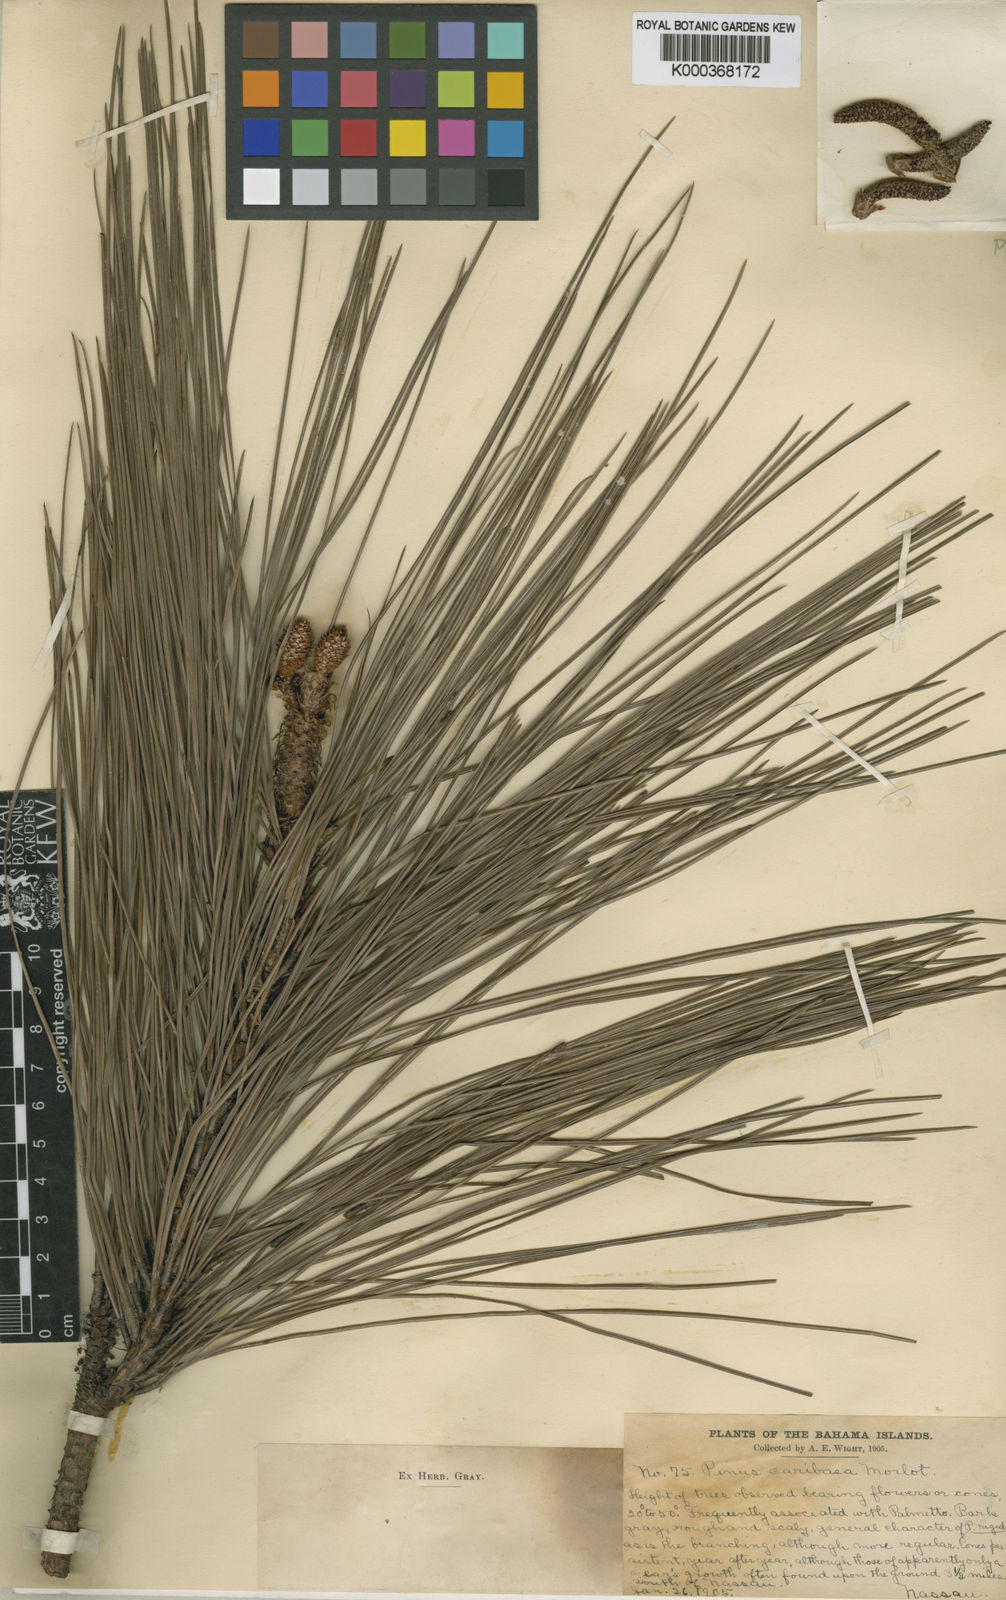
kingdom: Plantae
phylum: Tracheophyta
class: Pinopsida
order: Pinales
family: Pinaceae
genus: Pinus
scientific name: Pinus caribaea
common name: Caribbean pine
